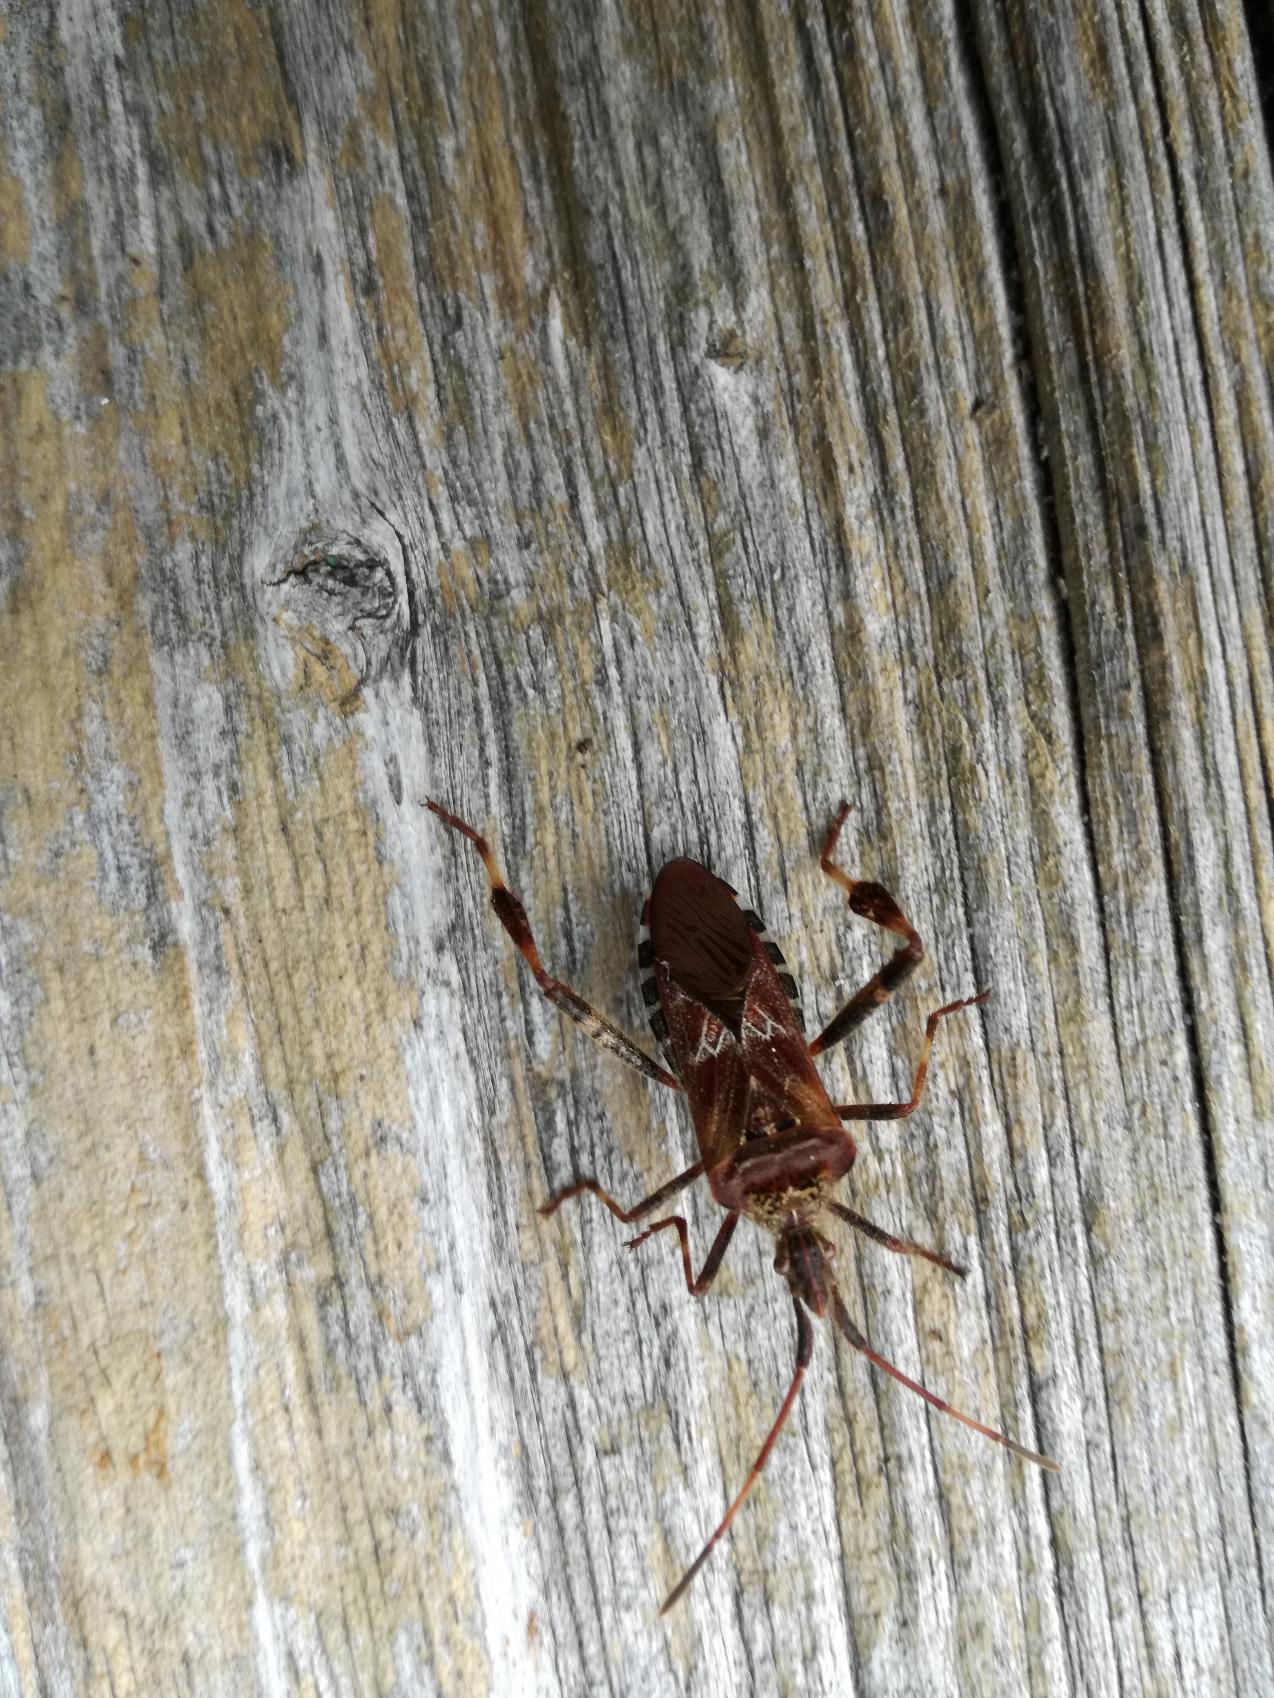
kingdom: Animalia
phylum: Arthropoda
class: Insecta
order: Hemiptera
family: Coreidae
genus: Leptoglossus
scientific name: Leptoglossus occidentalis
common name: Amerikansk fyrretæge
